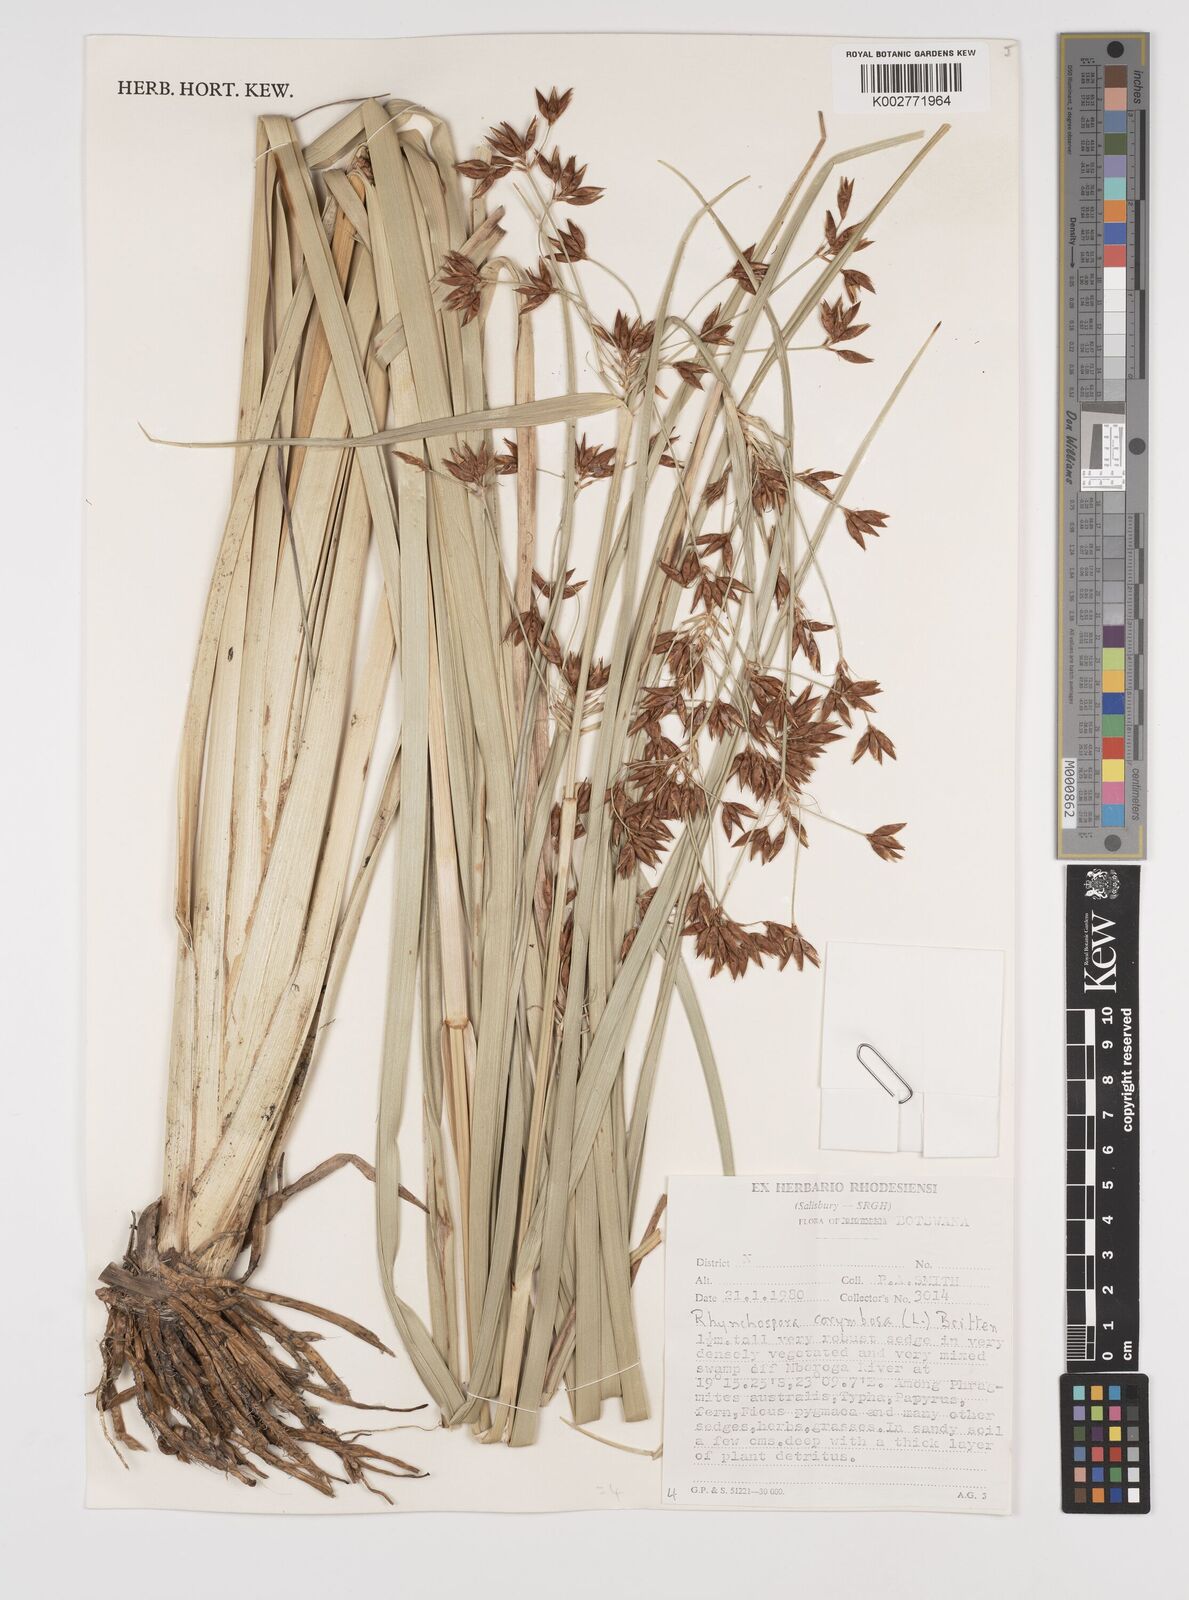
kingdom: Plantae
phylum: Tracheophyta
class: Liliopsida
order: Poales
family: Cyperaceae
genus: Rhynchospora
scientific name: Rhynchospora corymbosa
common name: Golden beak sedge
